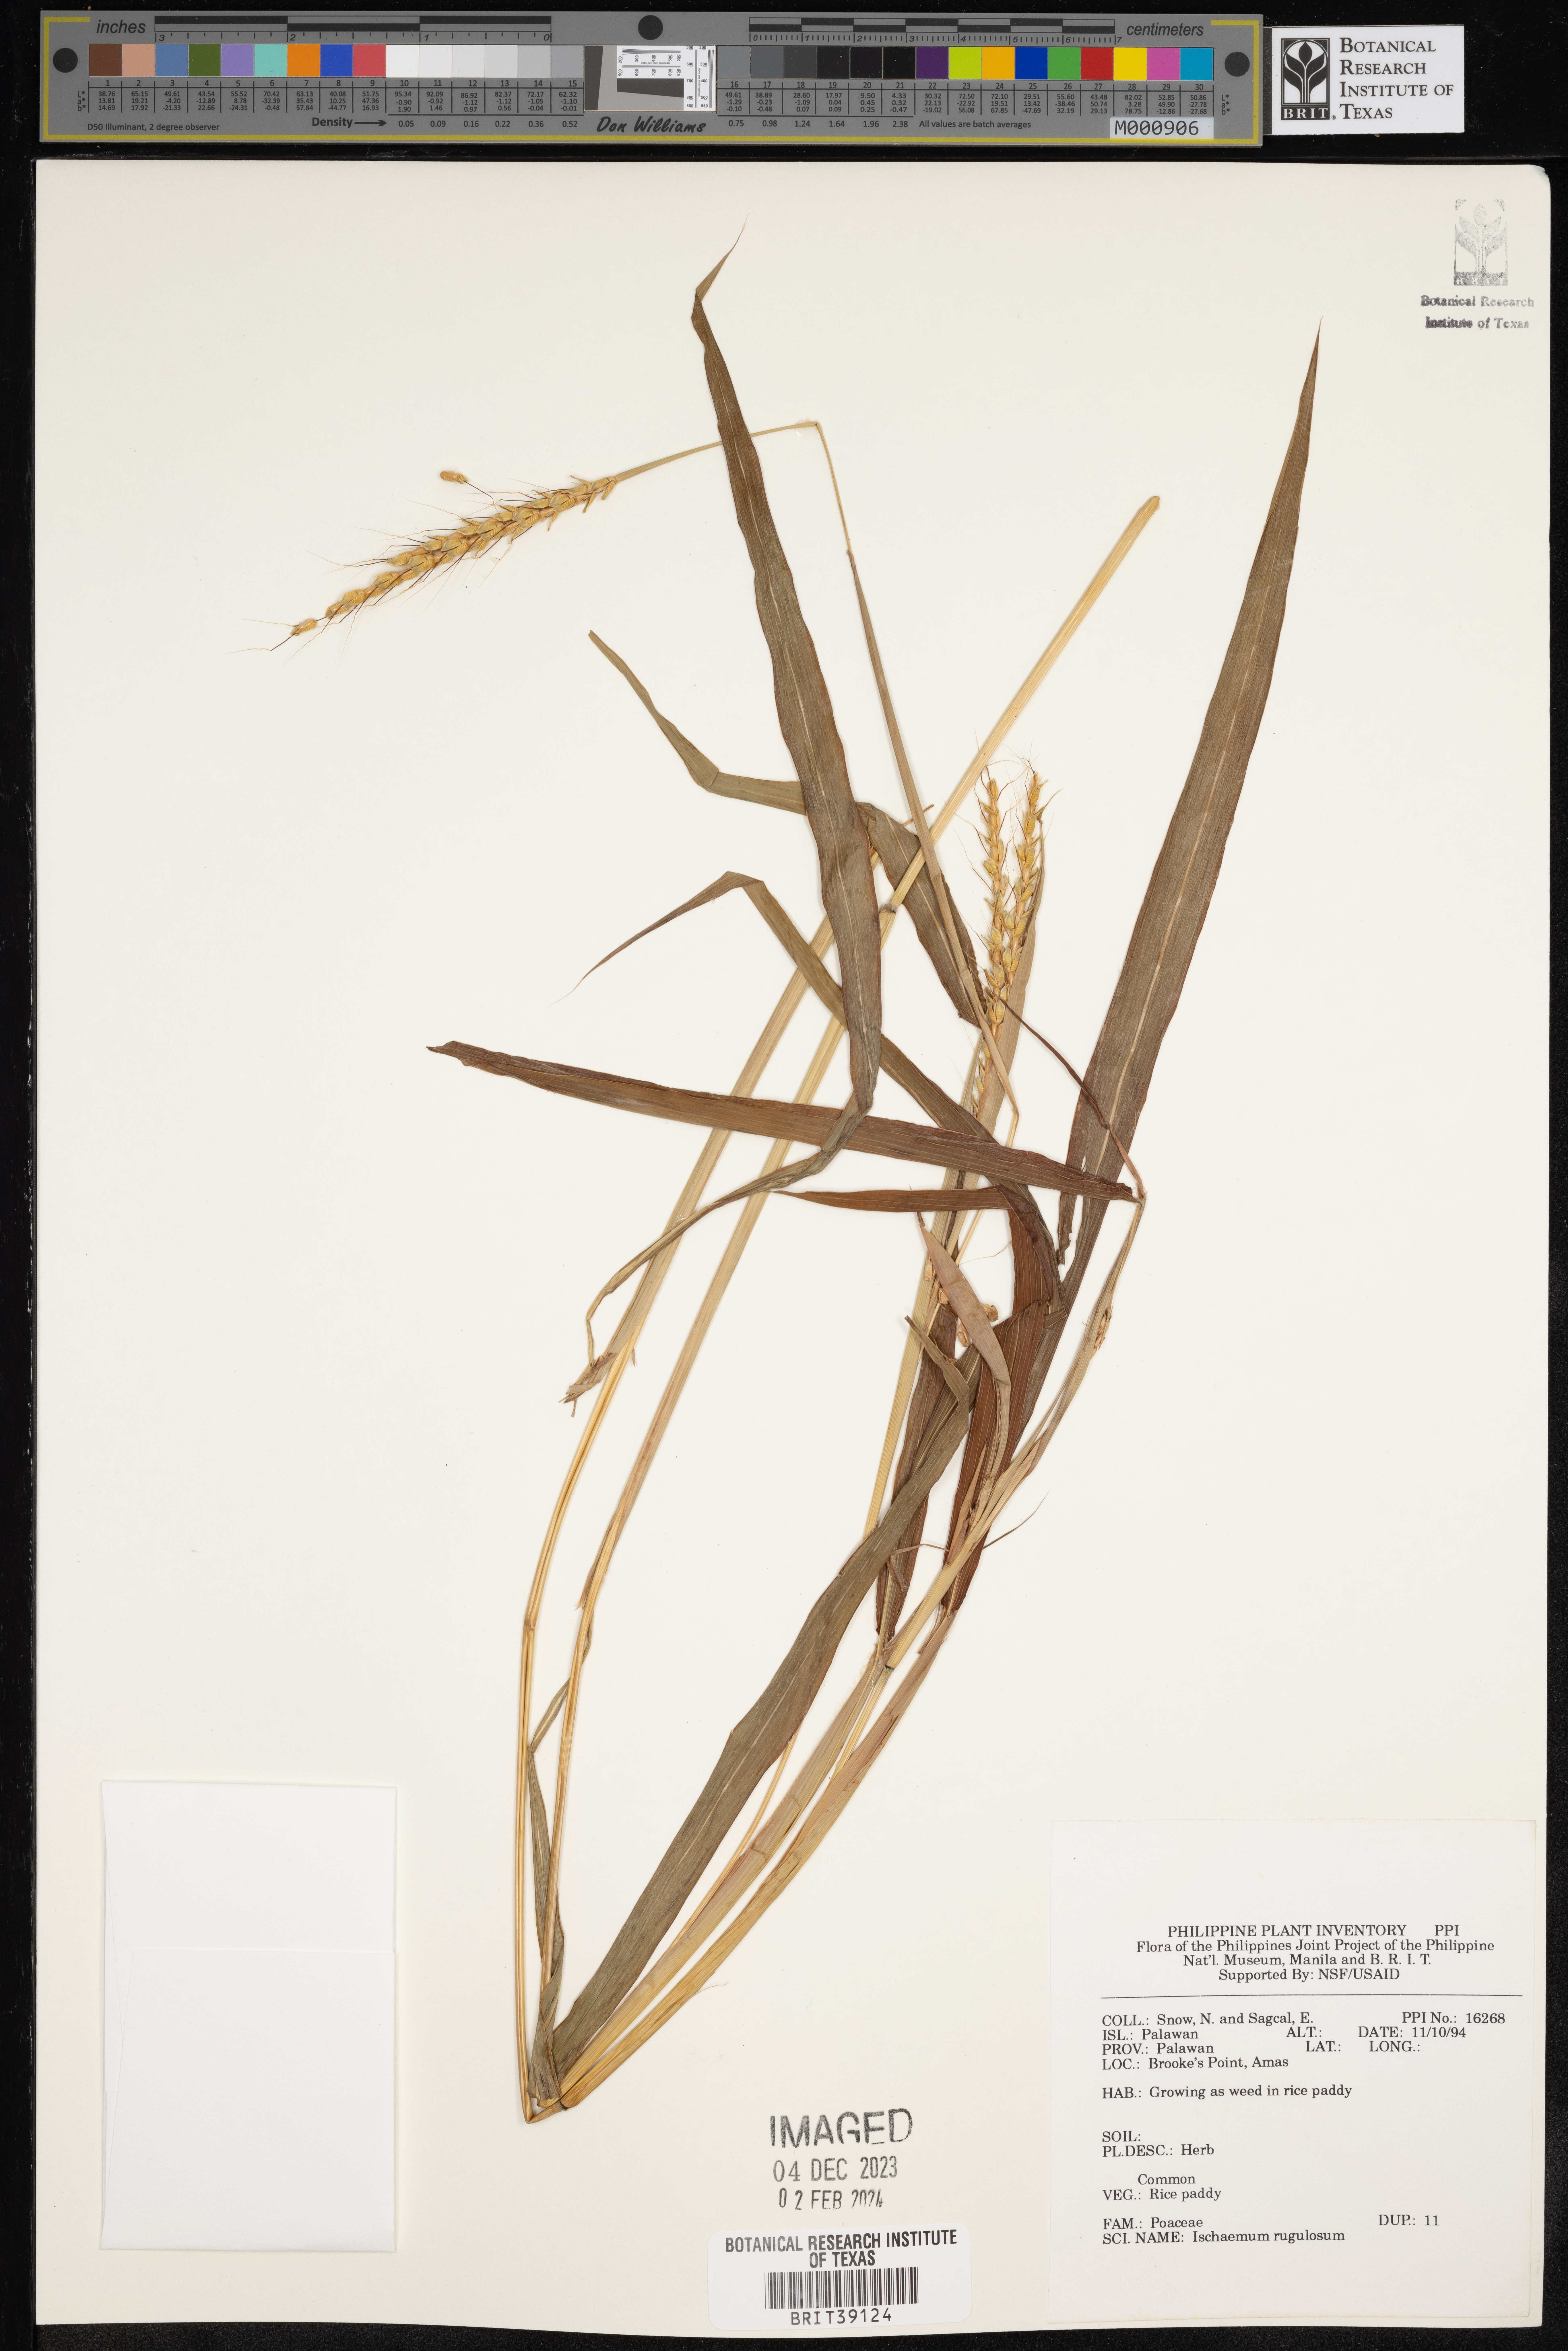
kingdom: Plantae
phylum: Tracheophyta
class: Liliopsida
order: Poales
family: Poaceae
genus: Ischaemum
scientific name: Ischaemum rugosum
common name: Saramatta grass
